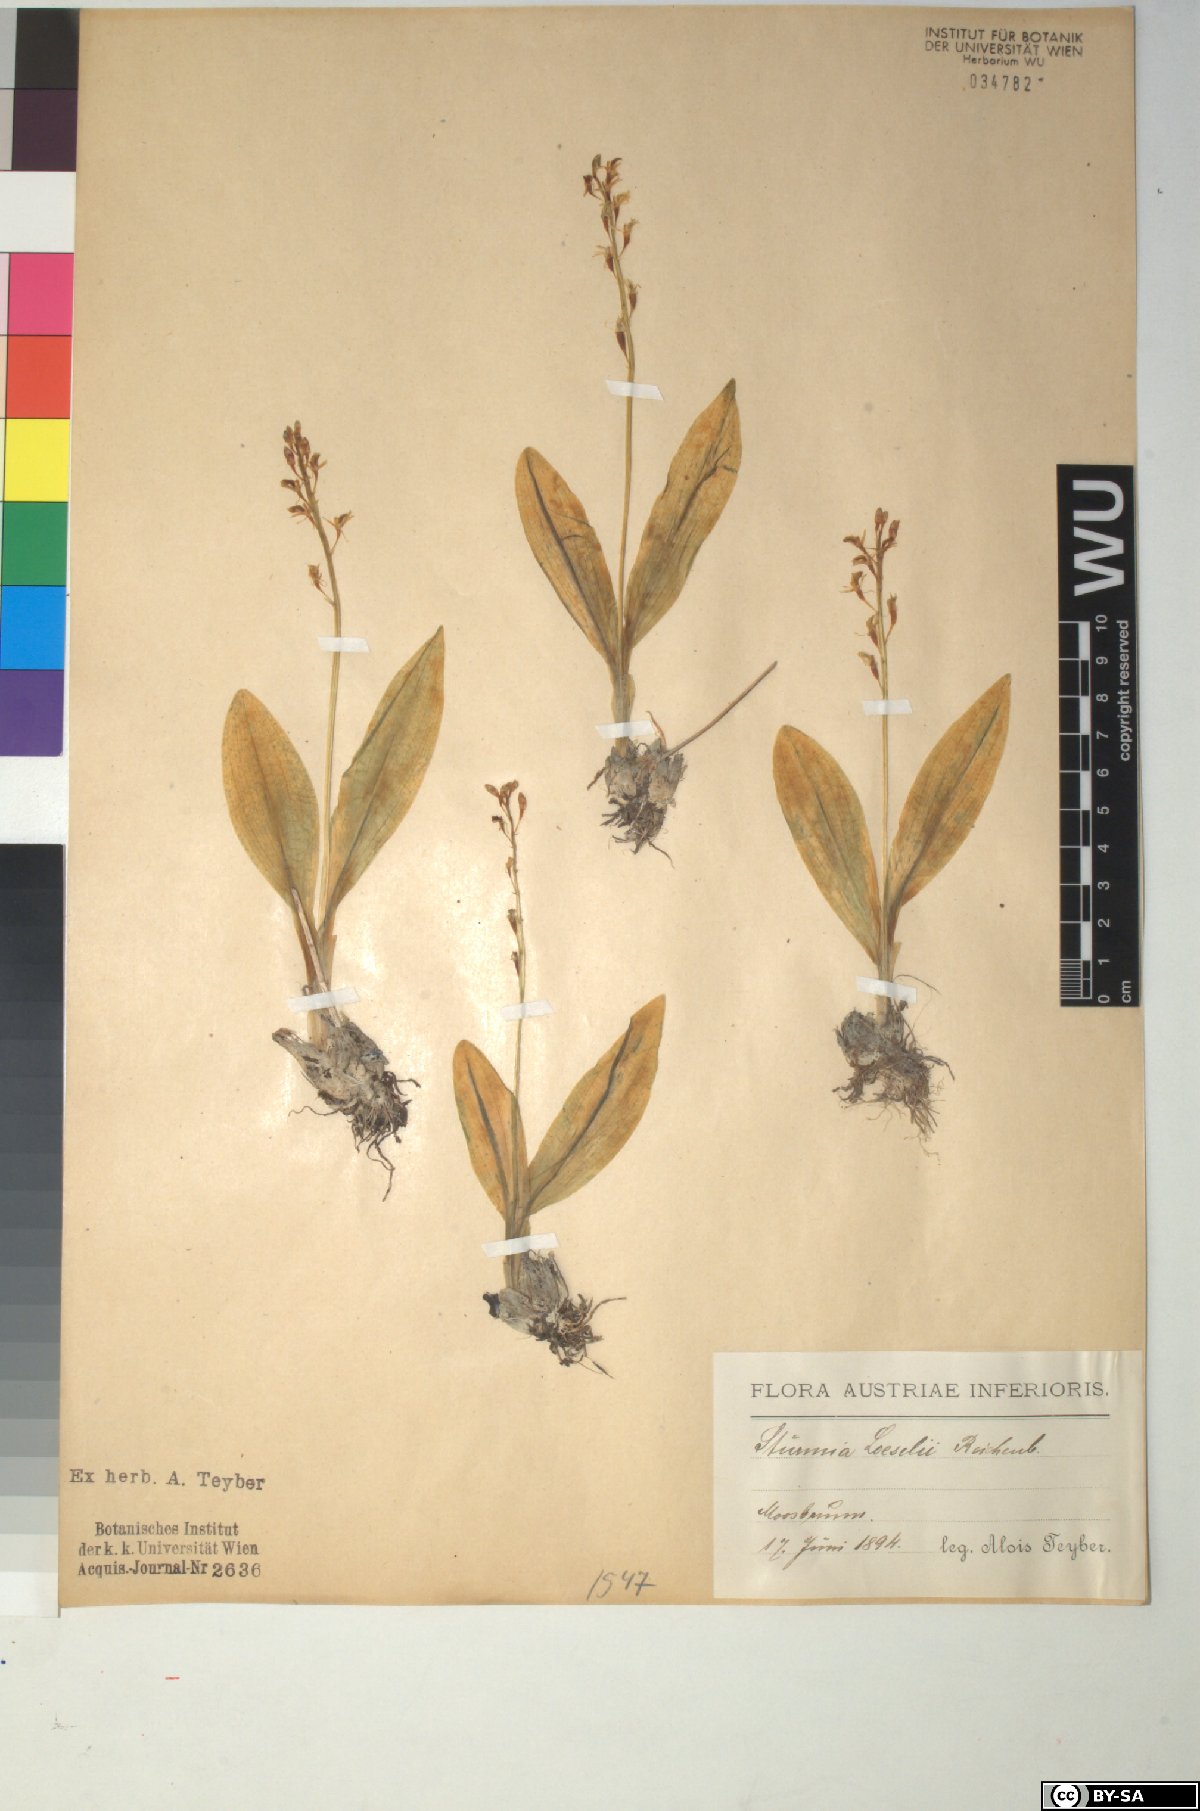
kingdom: Animalia
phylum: Arthropoda
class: Insecta
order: Coleoptera
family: Curculionidae
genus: Liparis
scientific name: Liparis loeselii
